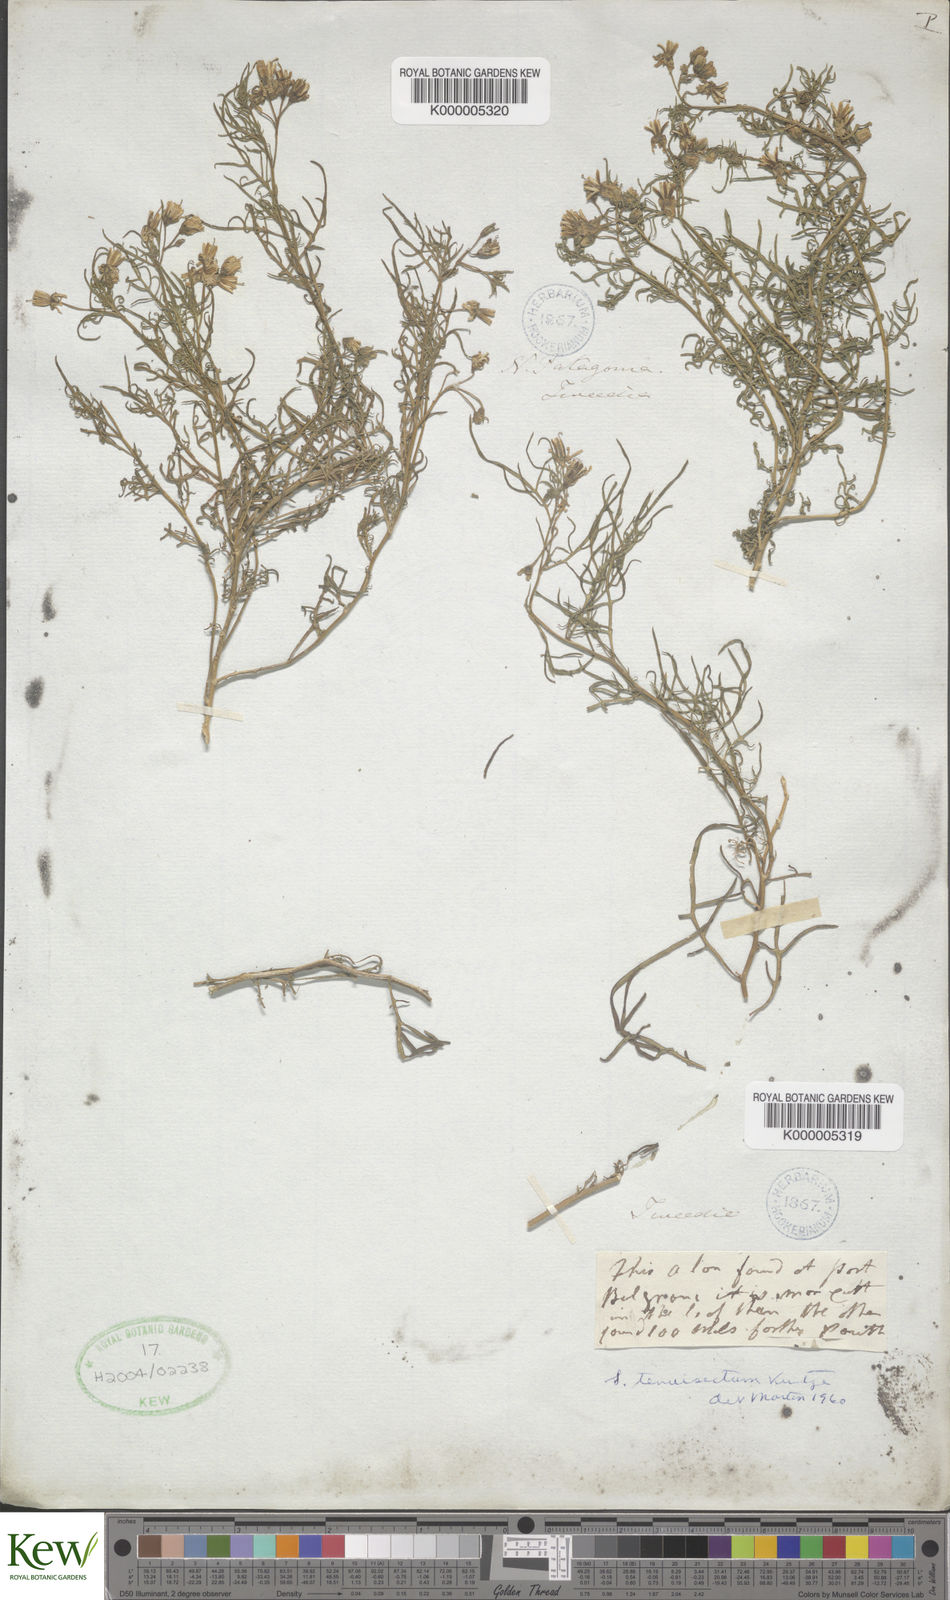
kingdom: Plantae
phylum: Tracheophyta
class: Magnoliopsida
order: Solanales
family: Solanaceae
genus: Solanum
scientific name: Solanum salicifolium
